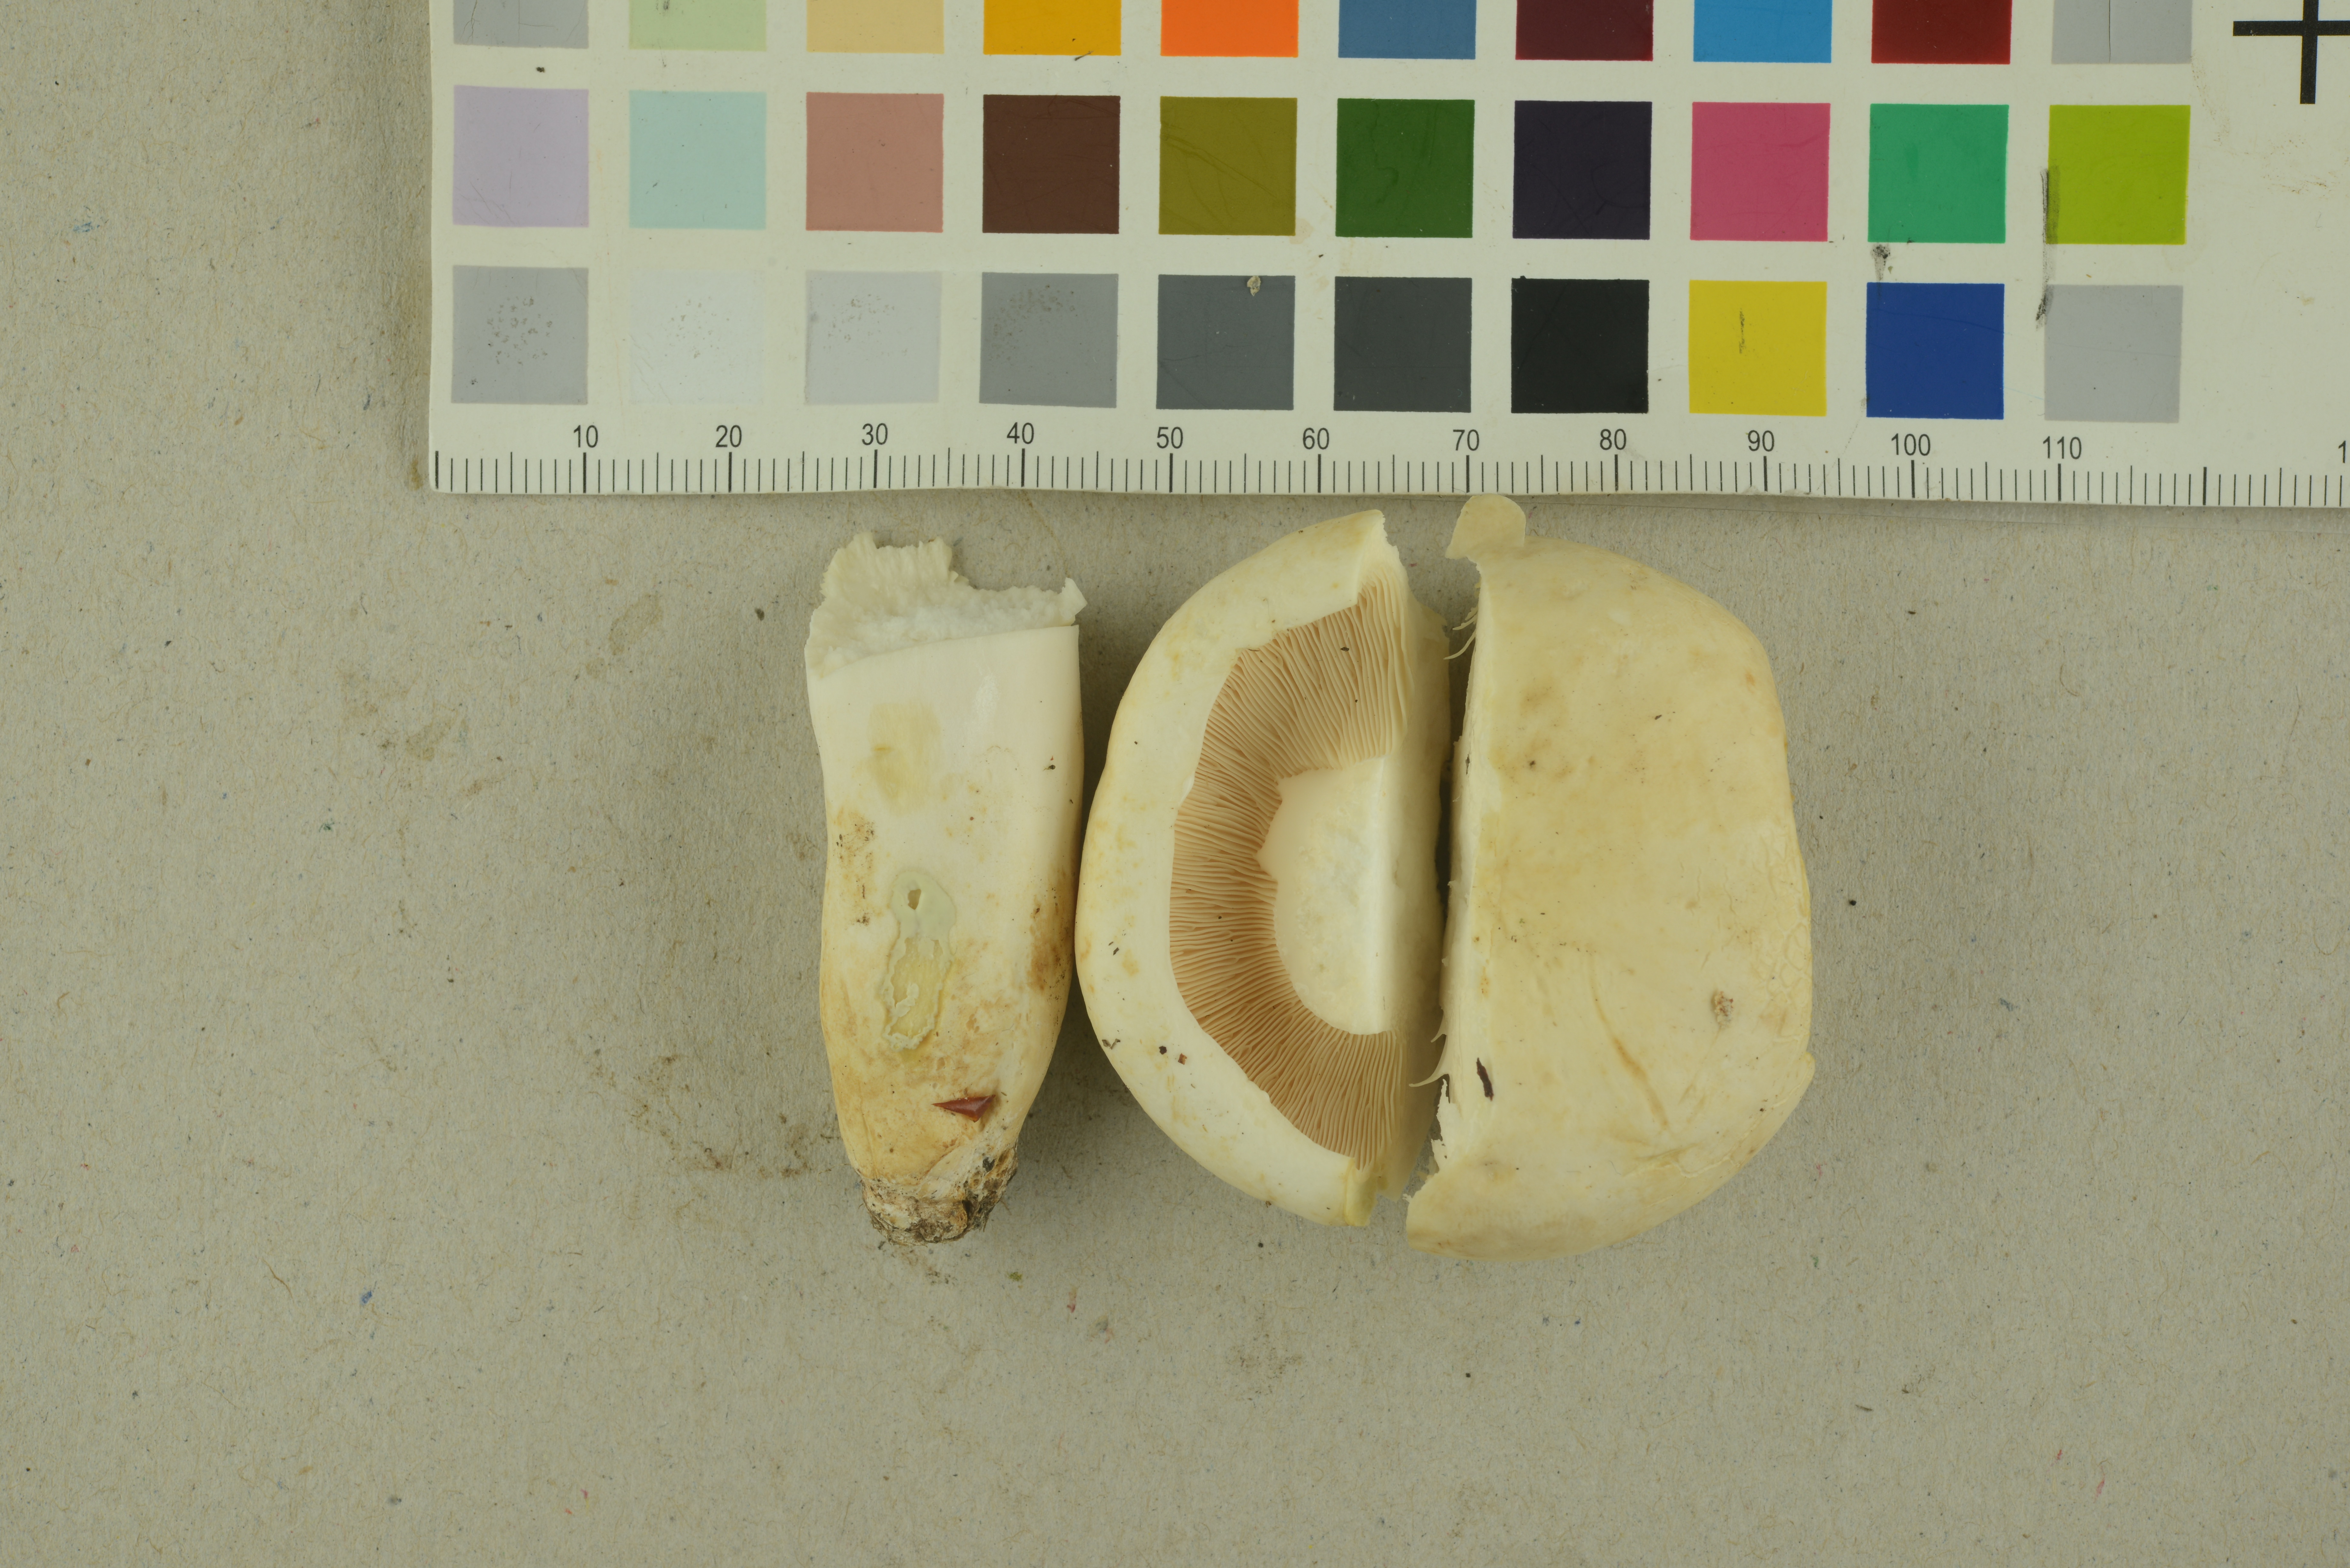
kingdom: Fungi
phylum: Basidiomycota
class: Agaricomycetes
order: Russulales
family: Russulaceae
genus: Lactifluus
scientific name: Lactifluus piperatus
